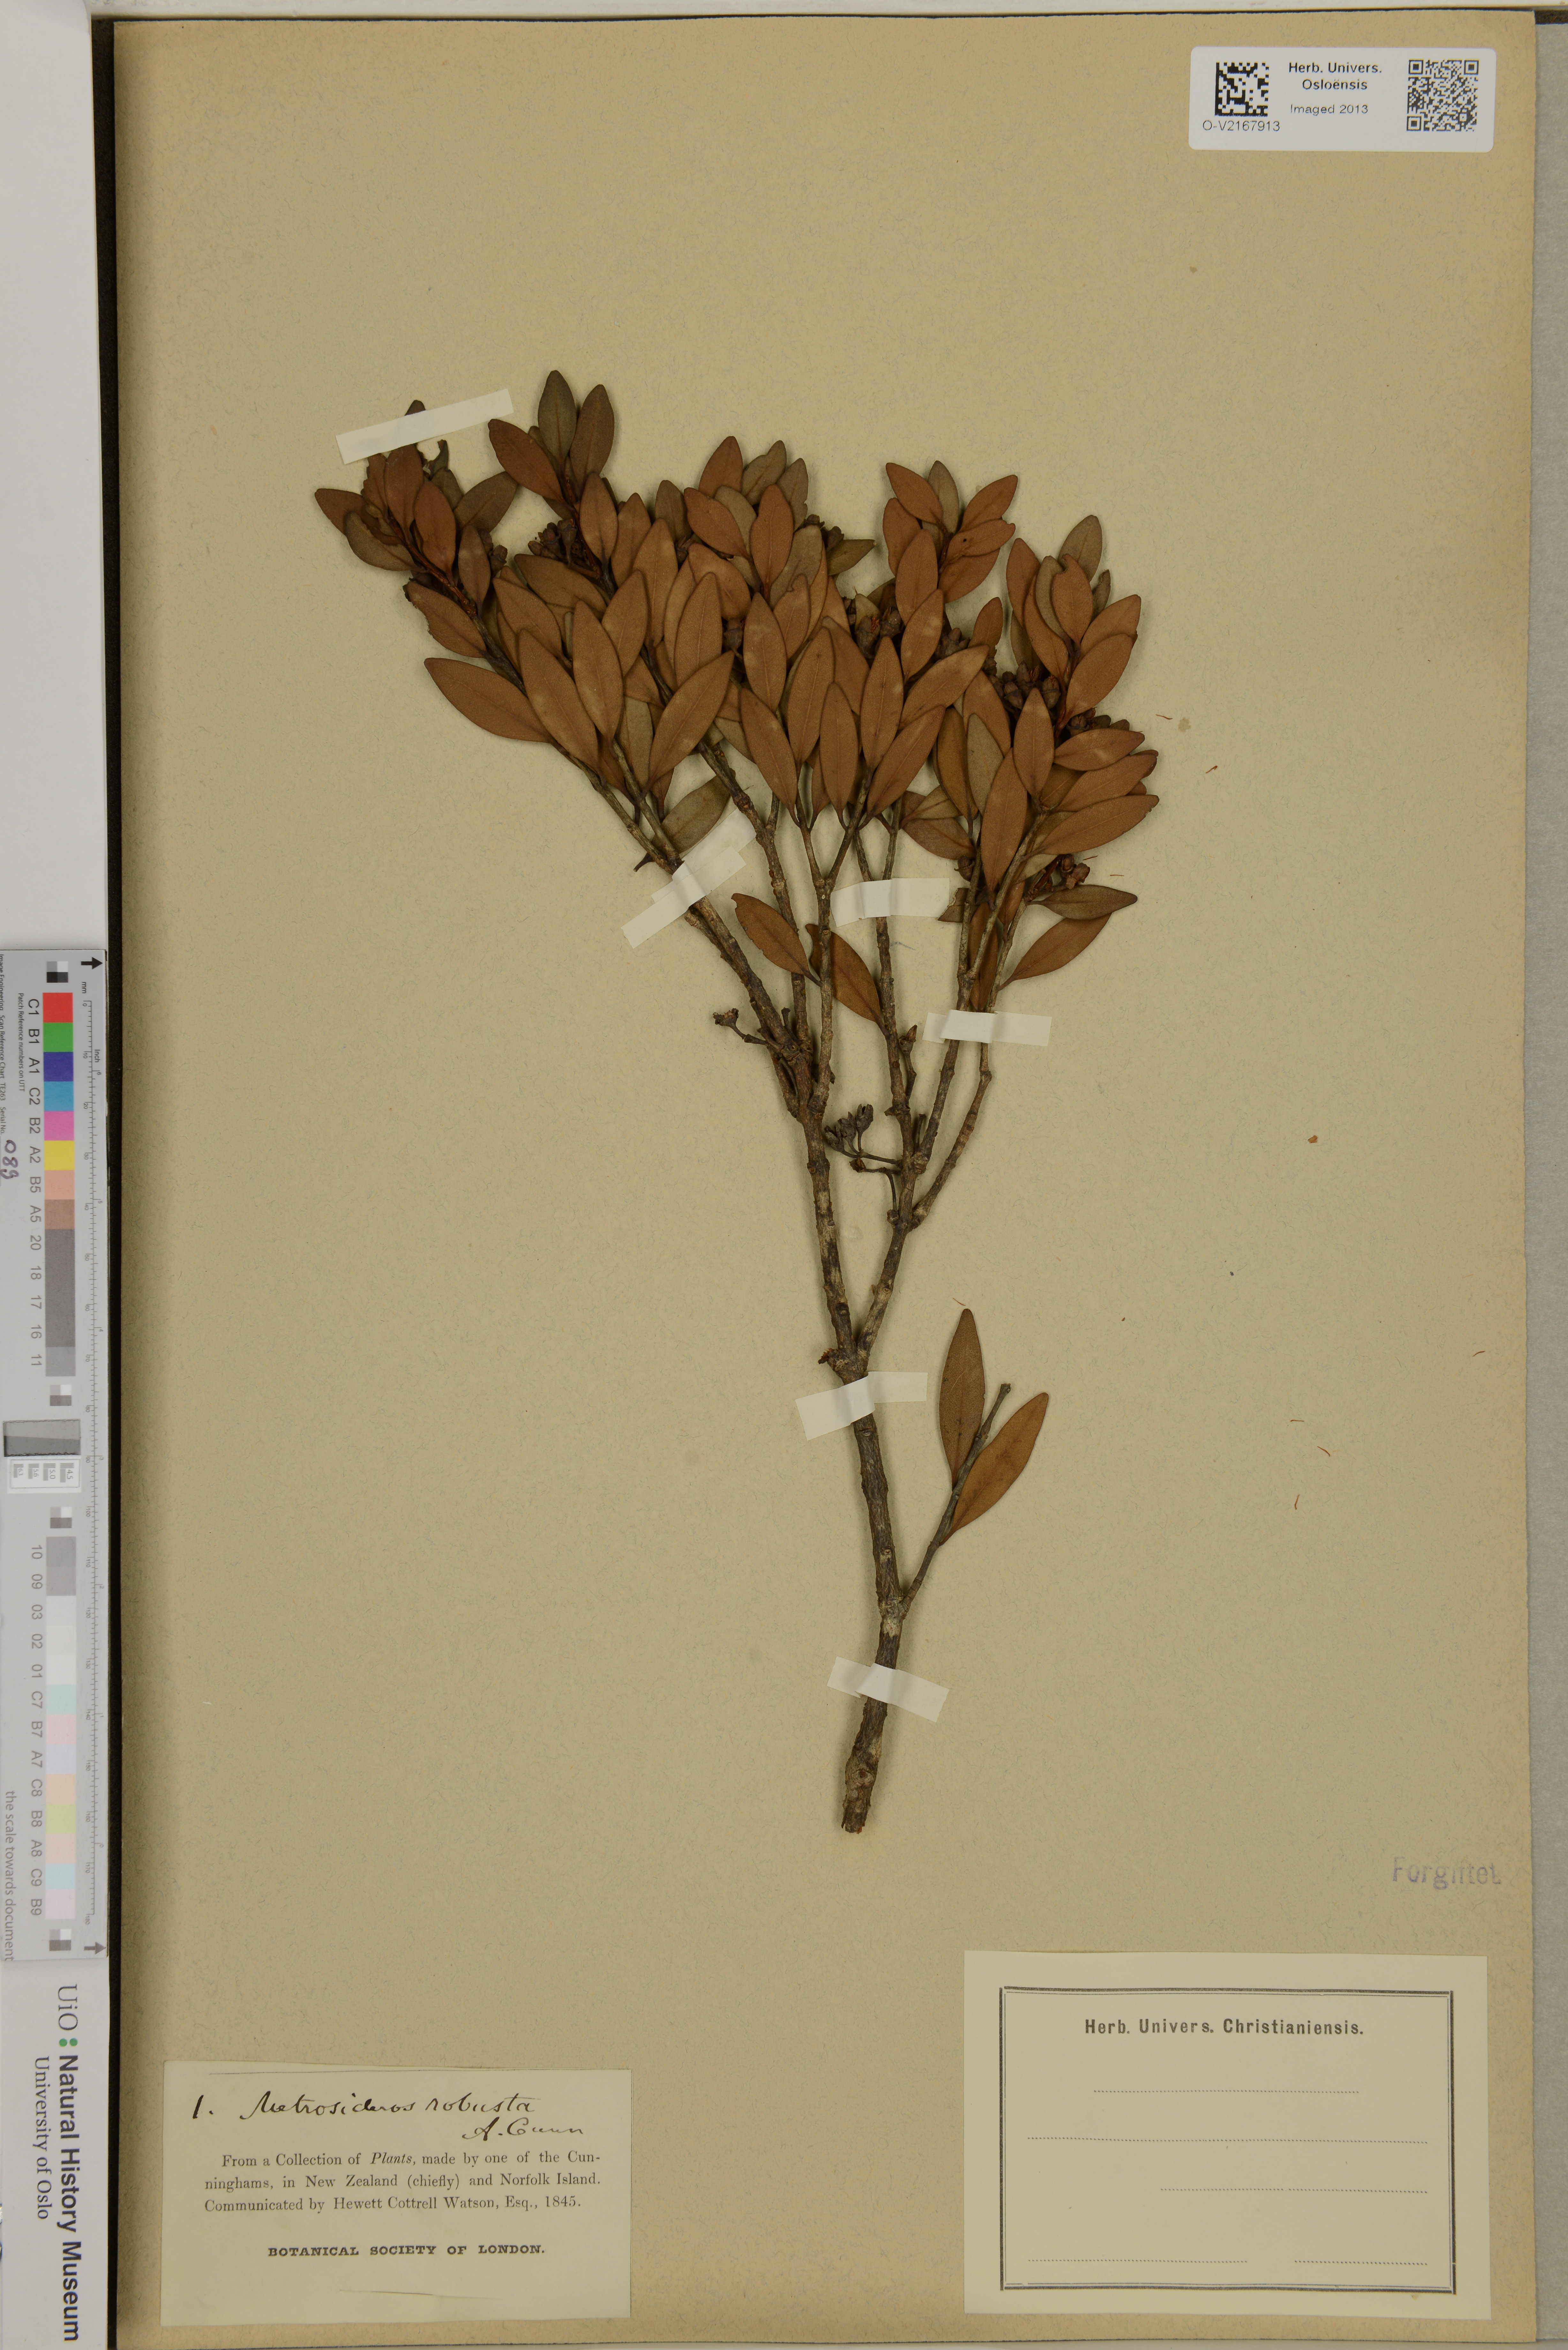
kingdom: Plantae
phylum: Tracheophyta
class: Magnoliopsida
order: Myrtales
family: Myrtaceae
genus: Metrosideros
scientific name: Metrosideros robusta
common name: Northern rata
